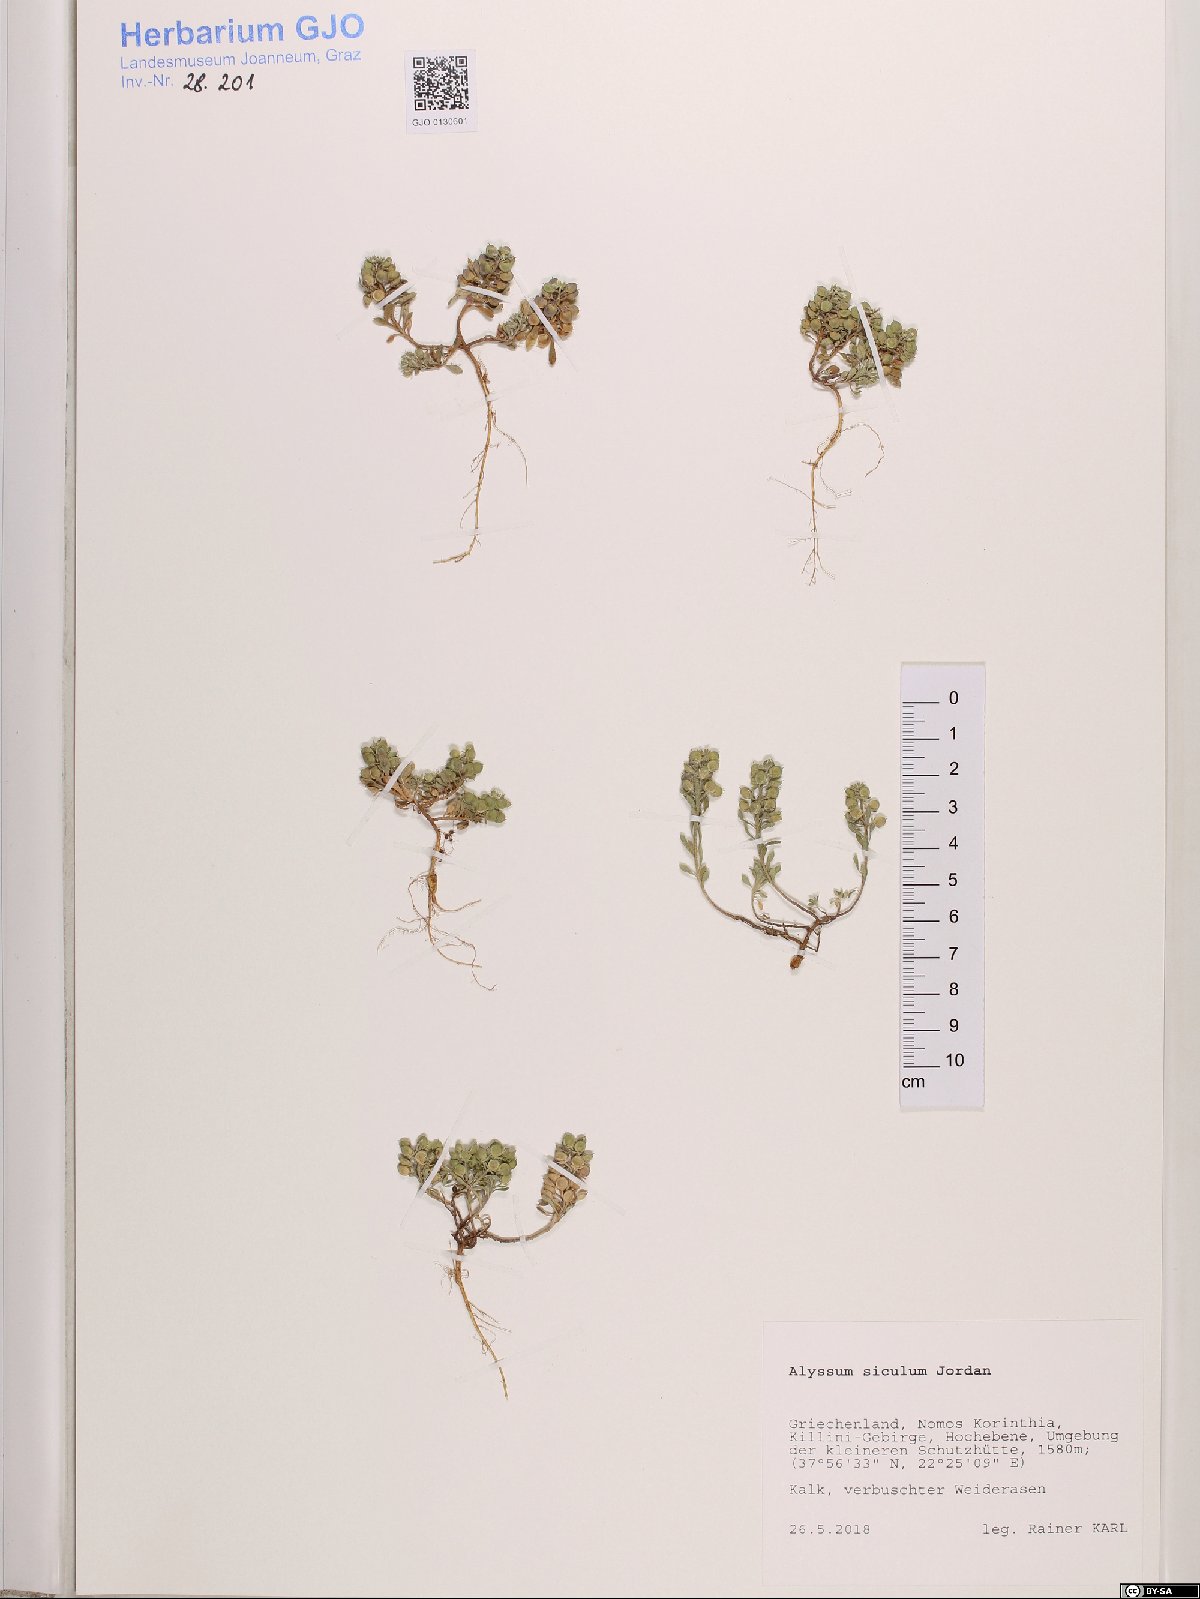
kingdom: Plantae
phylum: Tracheophyta
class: Magnoliopsida
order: Brassicales
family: Brassicaceae
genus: Alyssum
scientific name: Alyssum siculum
